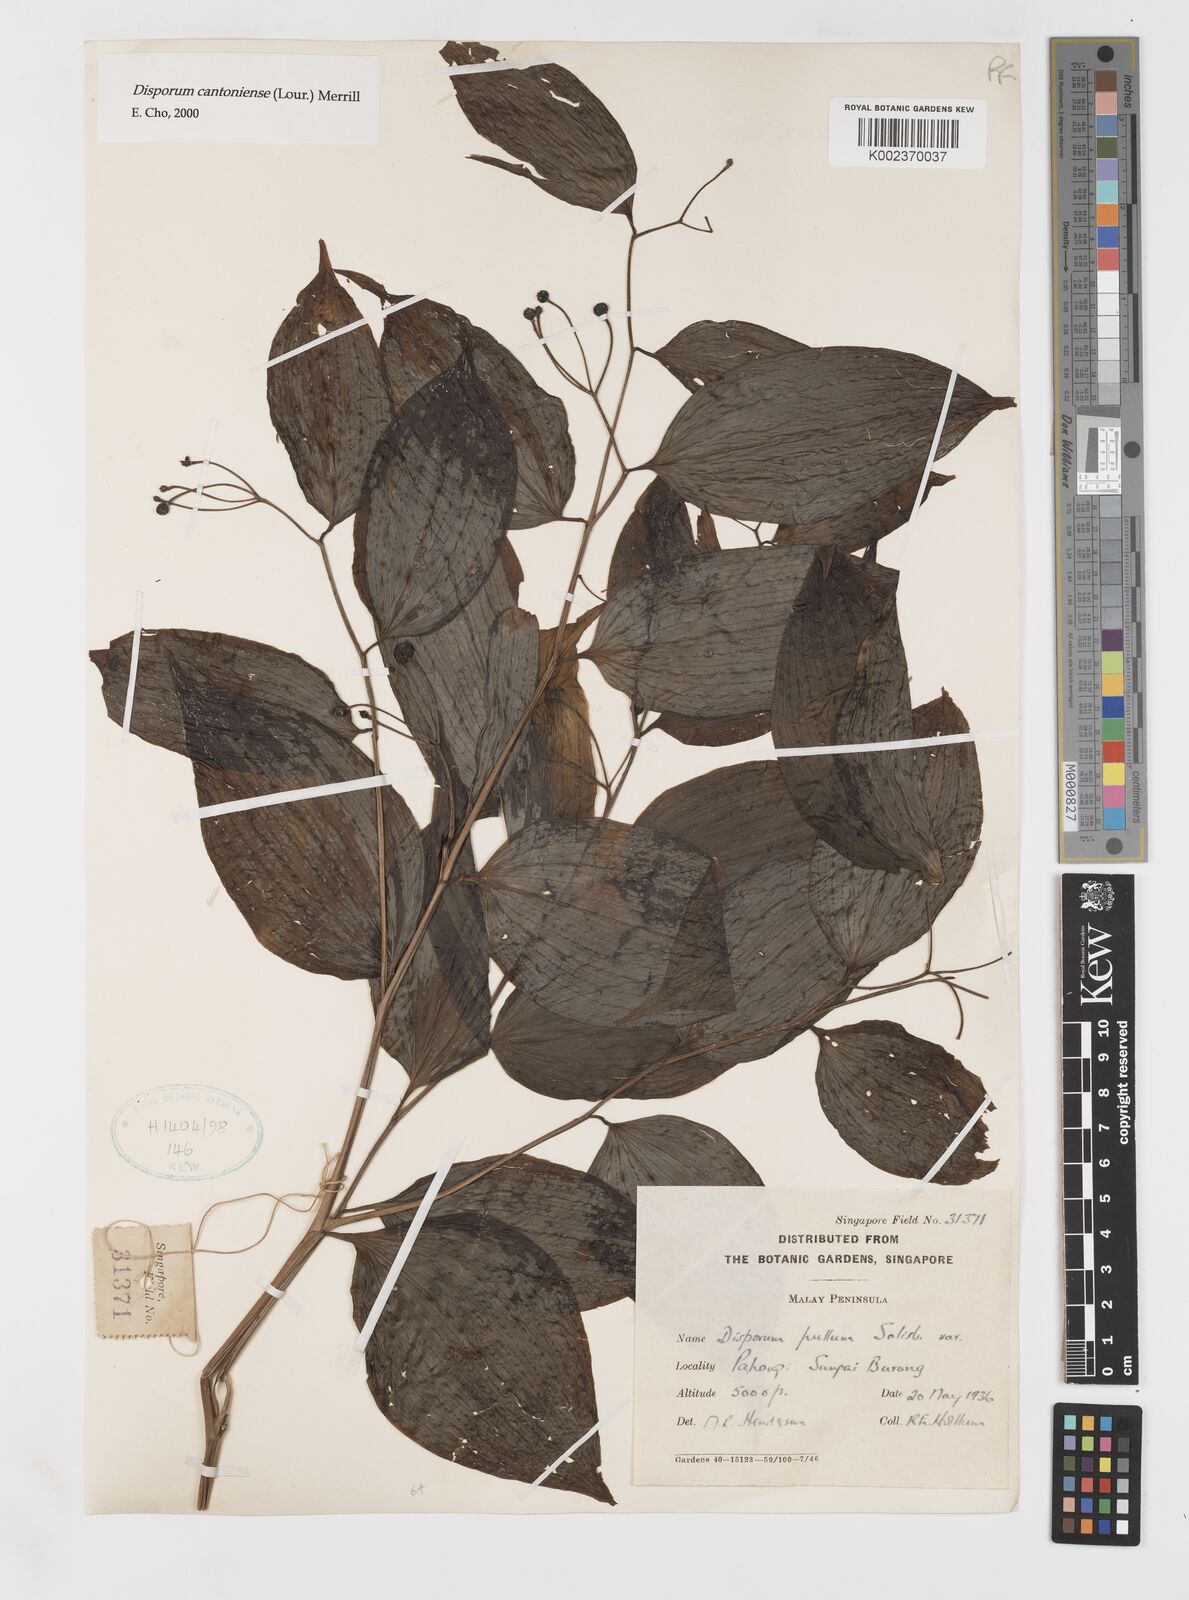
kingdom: Plantae
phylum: Tracheophyta
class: Liliopsida
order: Liliales
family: Colchicaceae
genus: Disporum
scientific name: Disporum cantoniense
